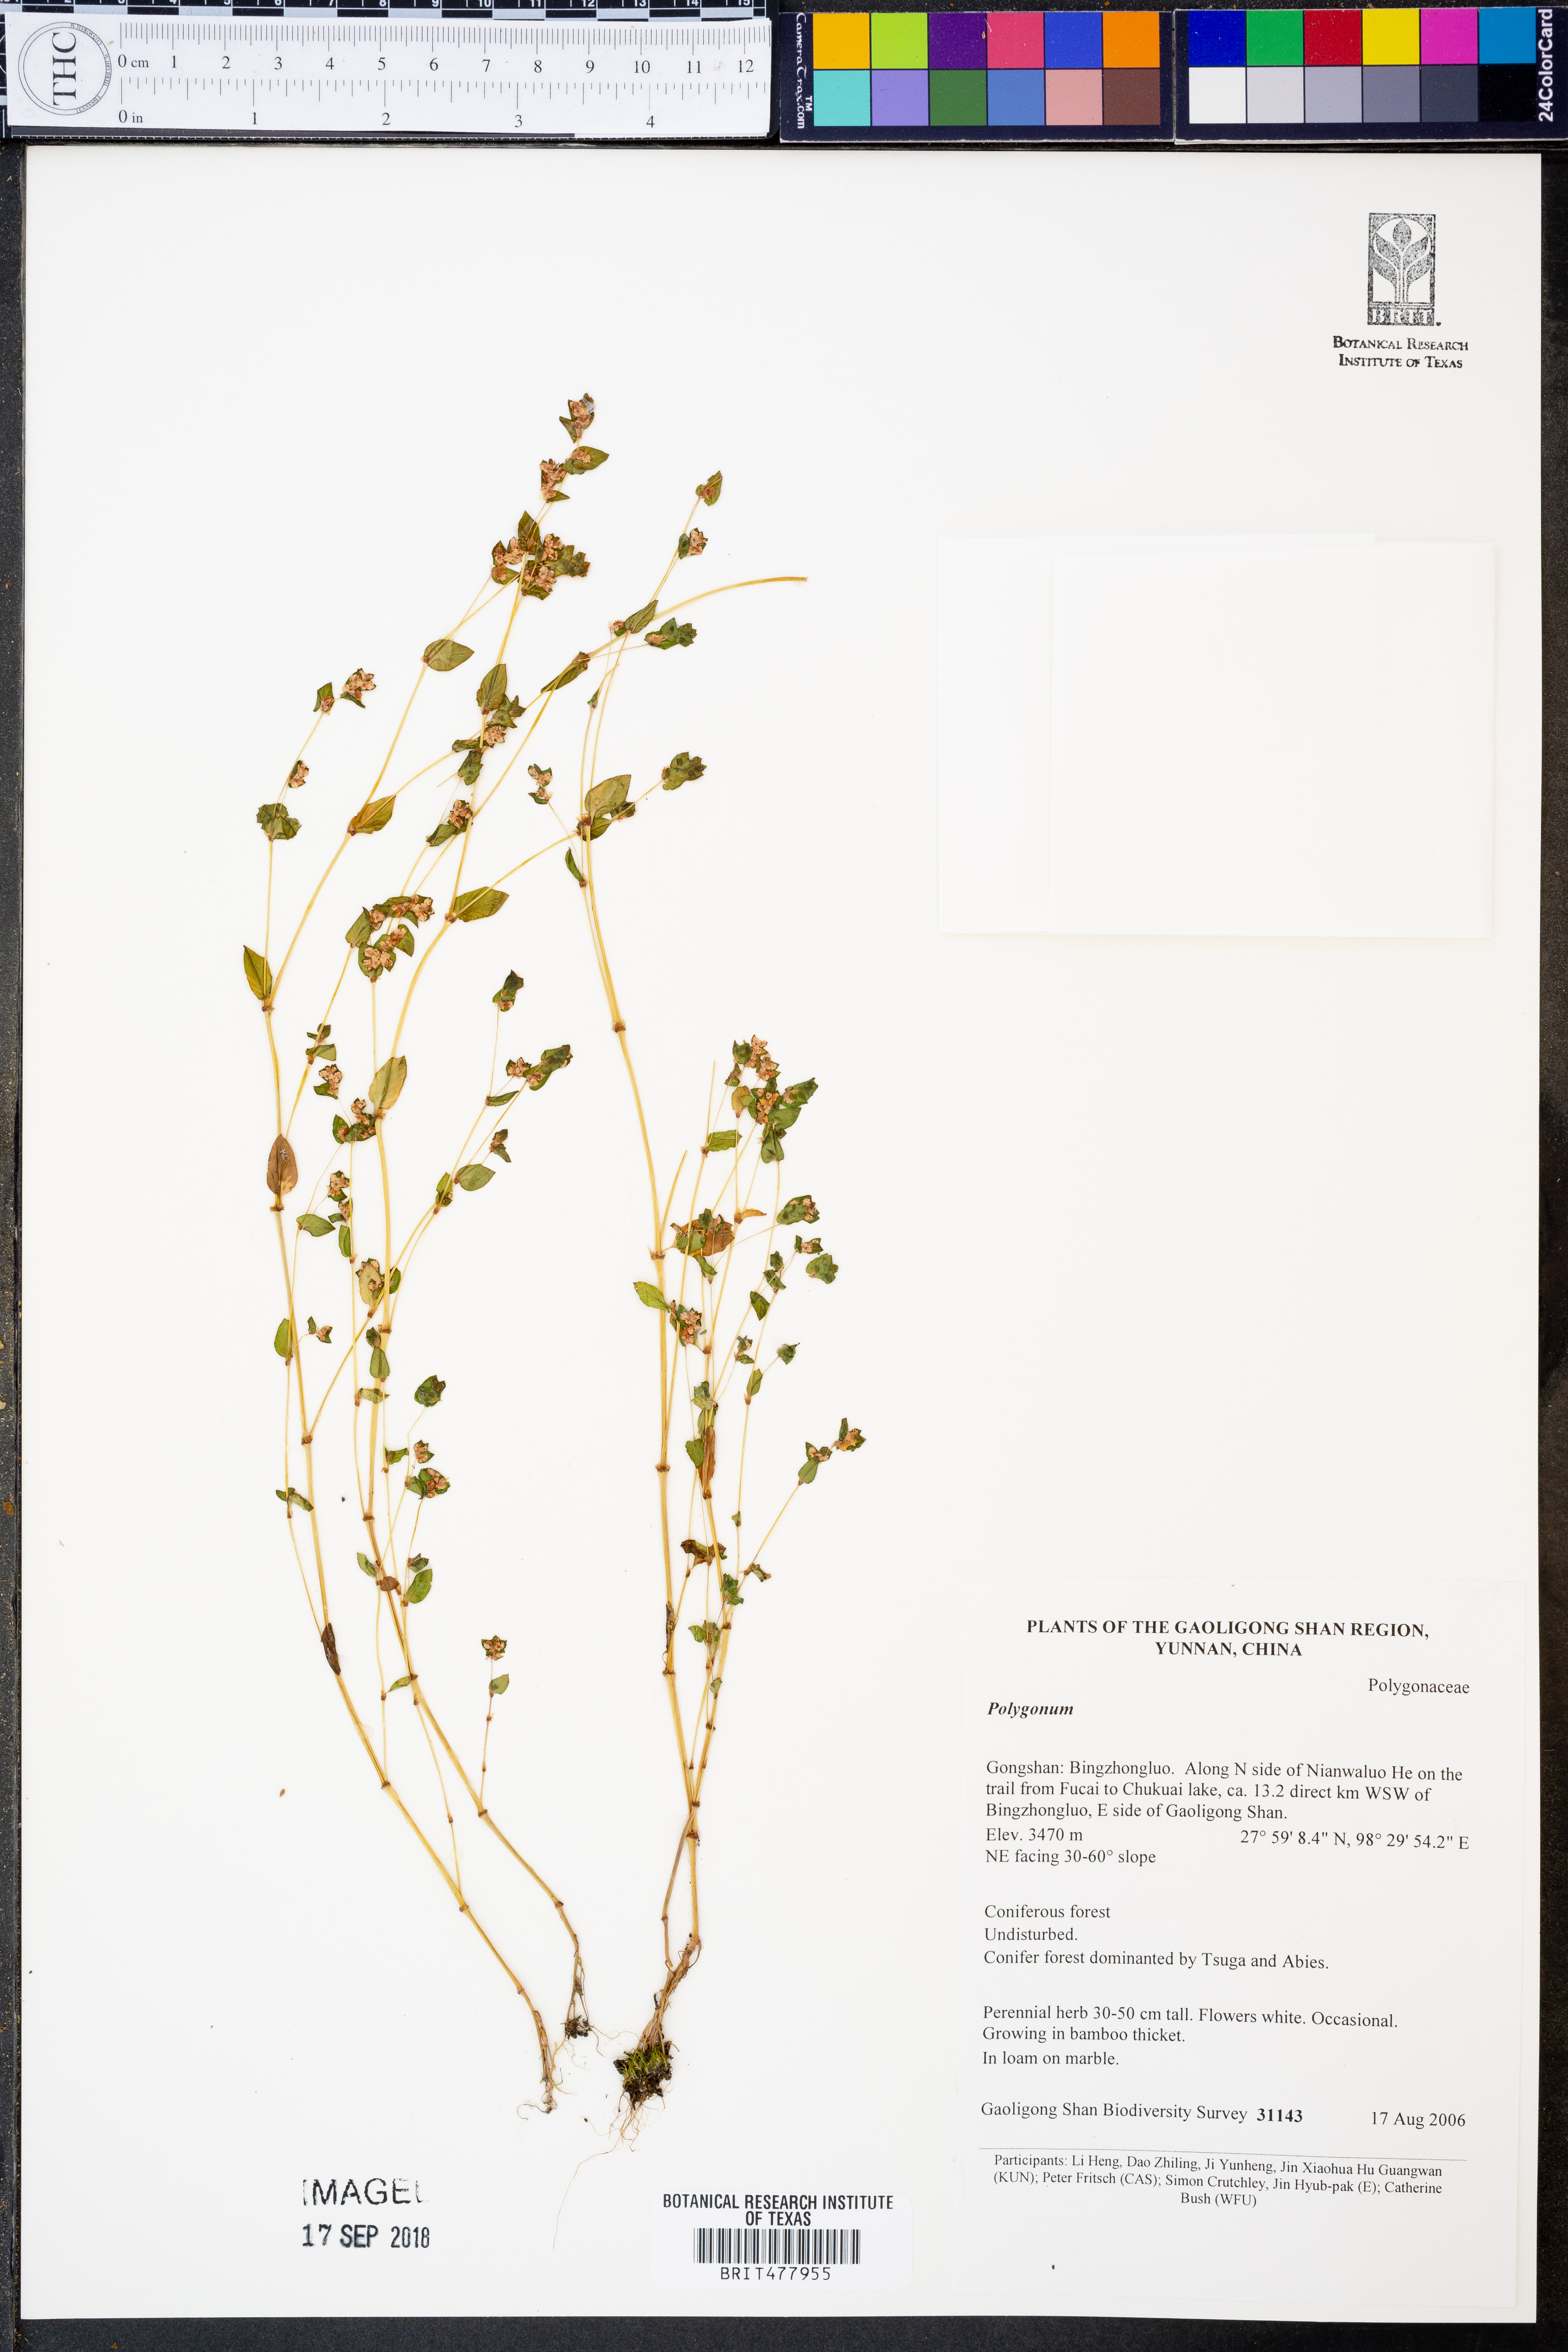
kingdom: Plantae
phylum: Tracheophyta
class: Magnoliopsida
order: Caryophyllales
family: Polygonaceae
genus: Koenigia
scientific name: Koenigia
